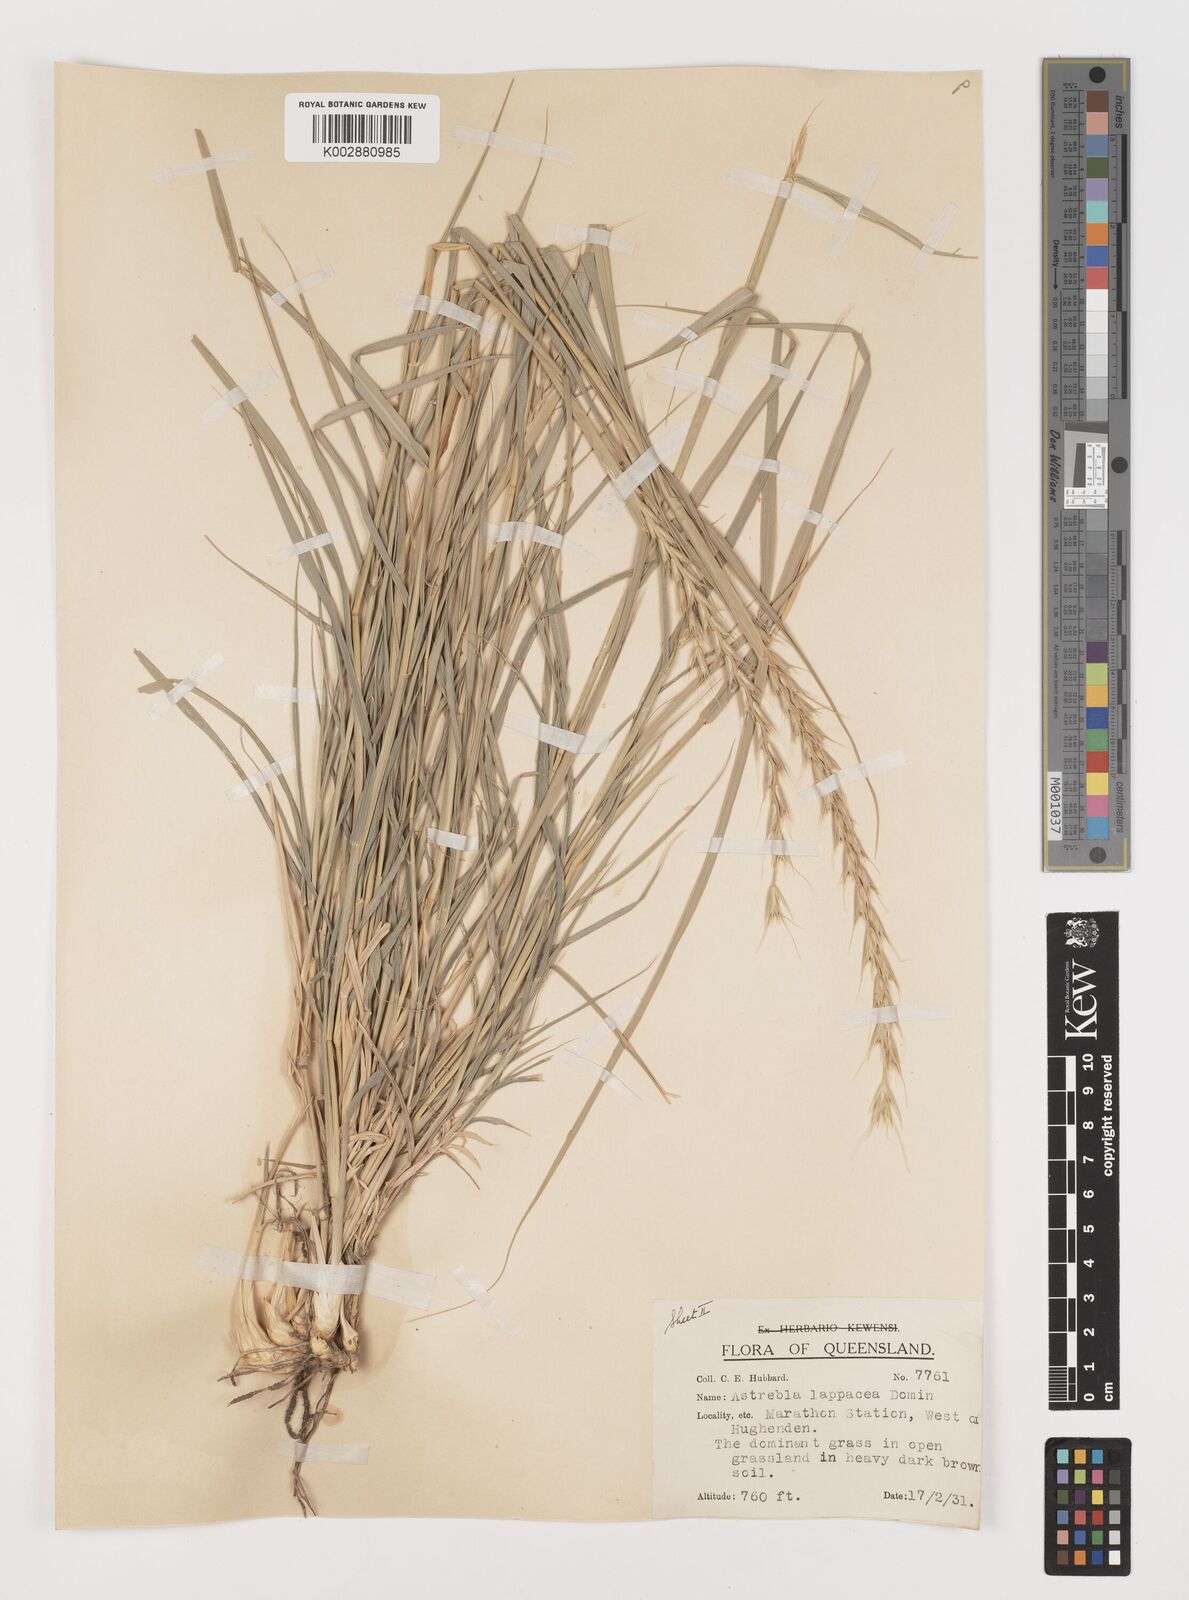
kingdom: Plantae
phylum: Tracheophyta
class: Liliopsida
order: Poales
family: Poaceae
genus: Astrebla
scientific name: Astrebla lappacea
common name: Curly mitchell grass
